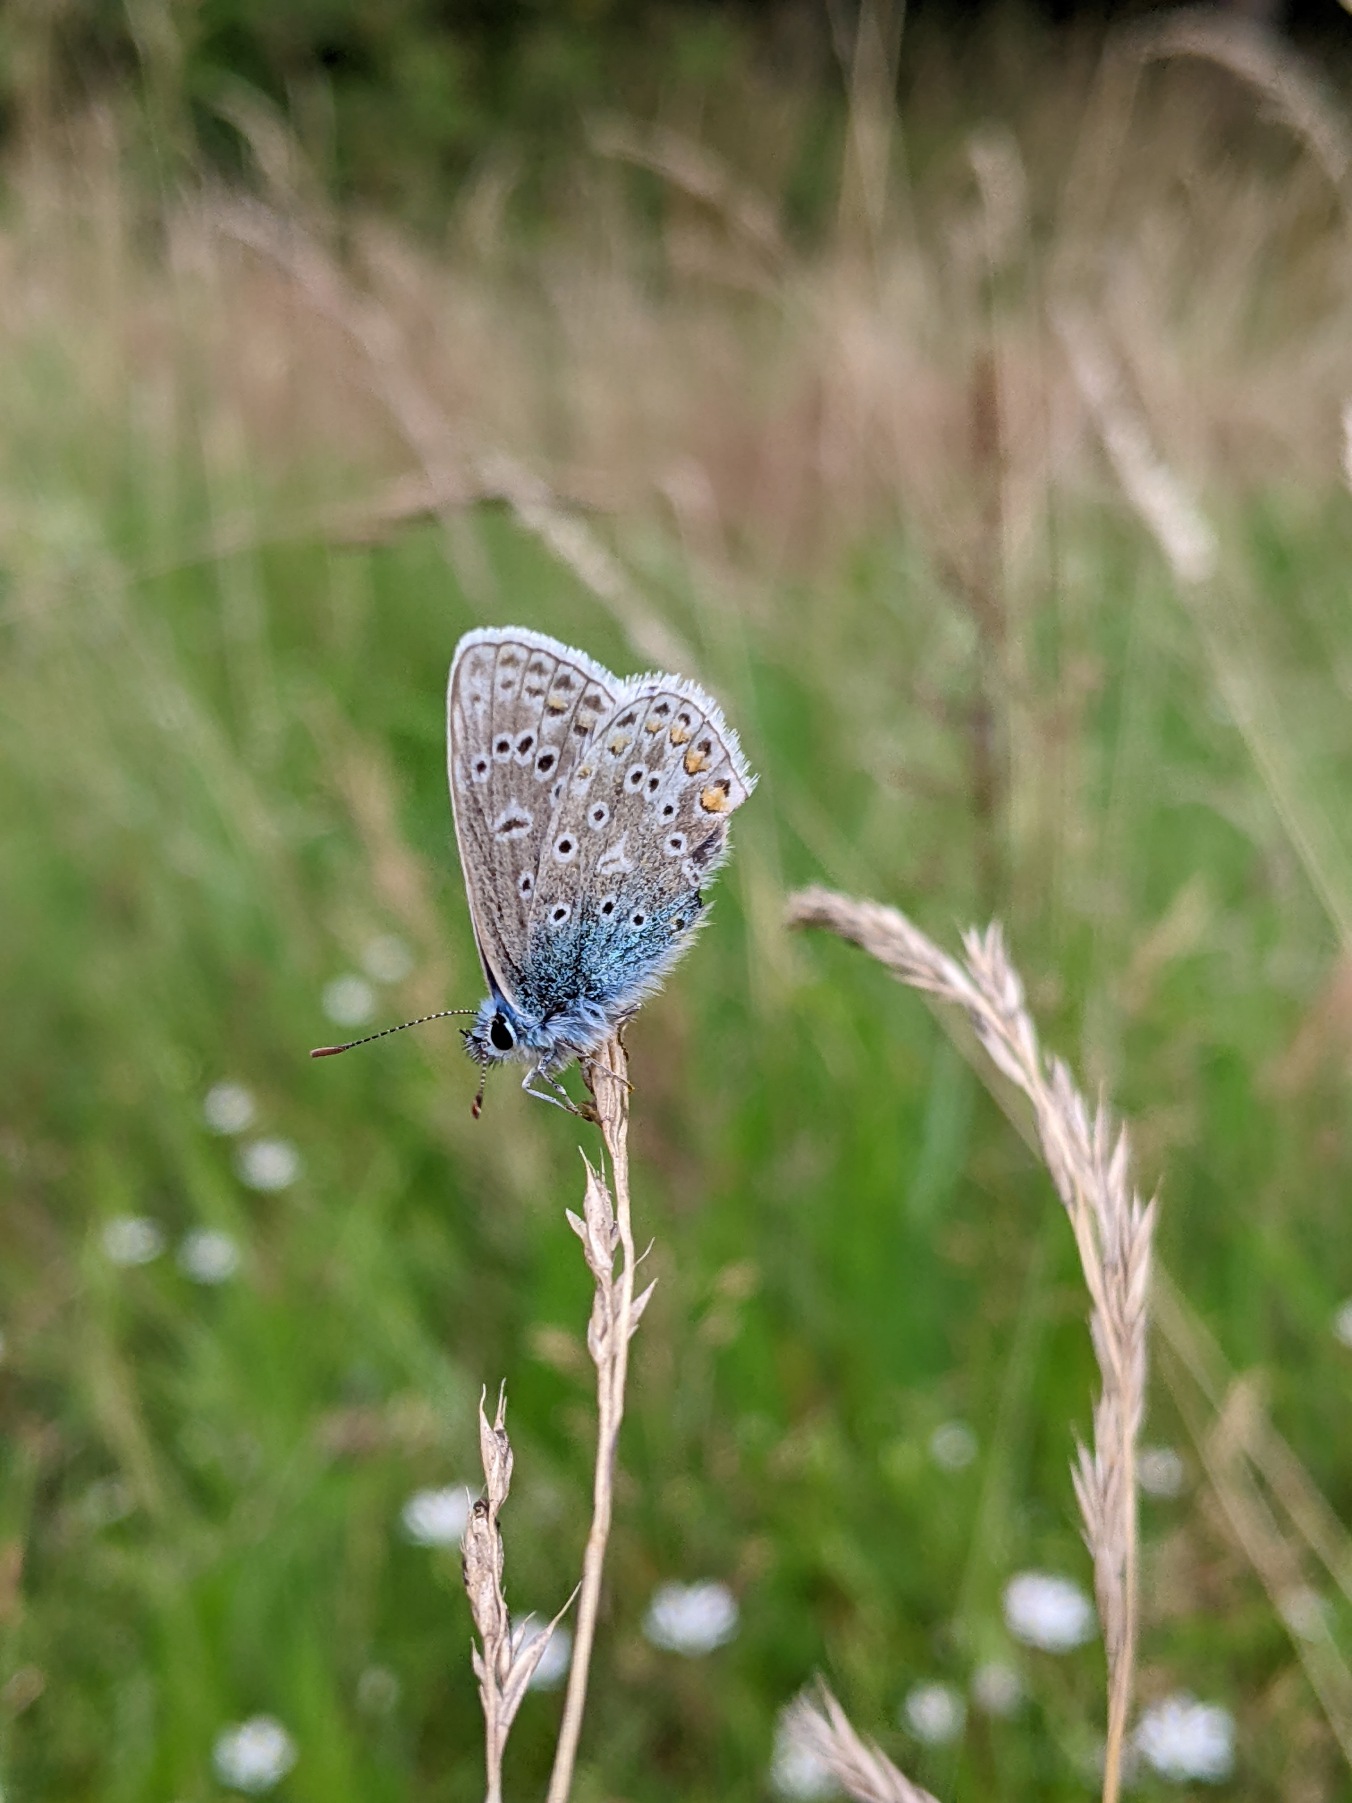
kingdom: Animalia
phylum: Arthropoda
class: Insecta
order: Lepidoptera
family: Lycaenidae
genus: Polyommatus
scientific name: Polyommatus icarus
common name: Almindelig blåfugl
